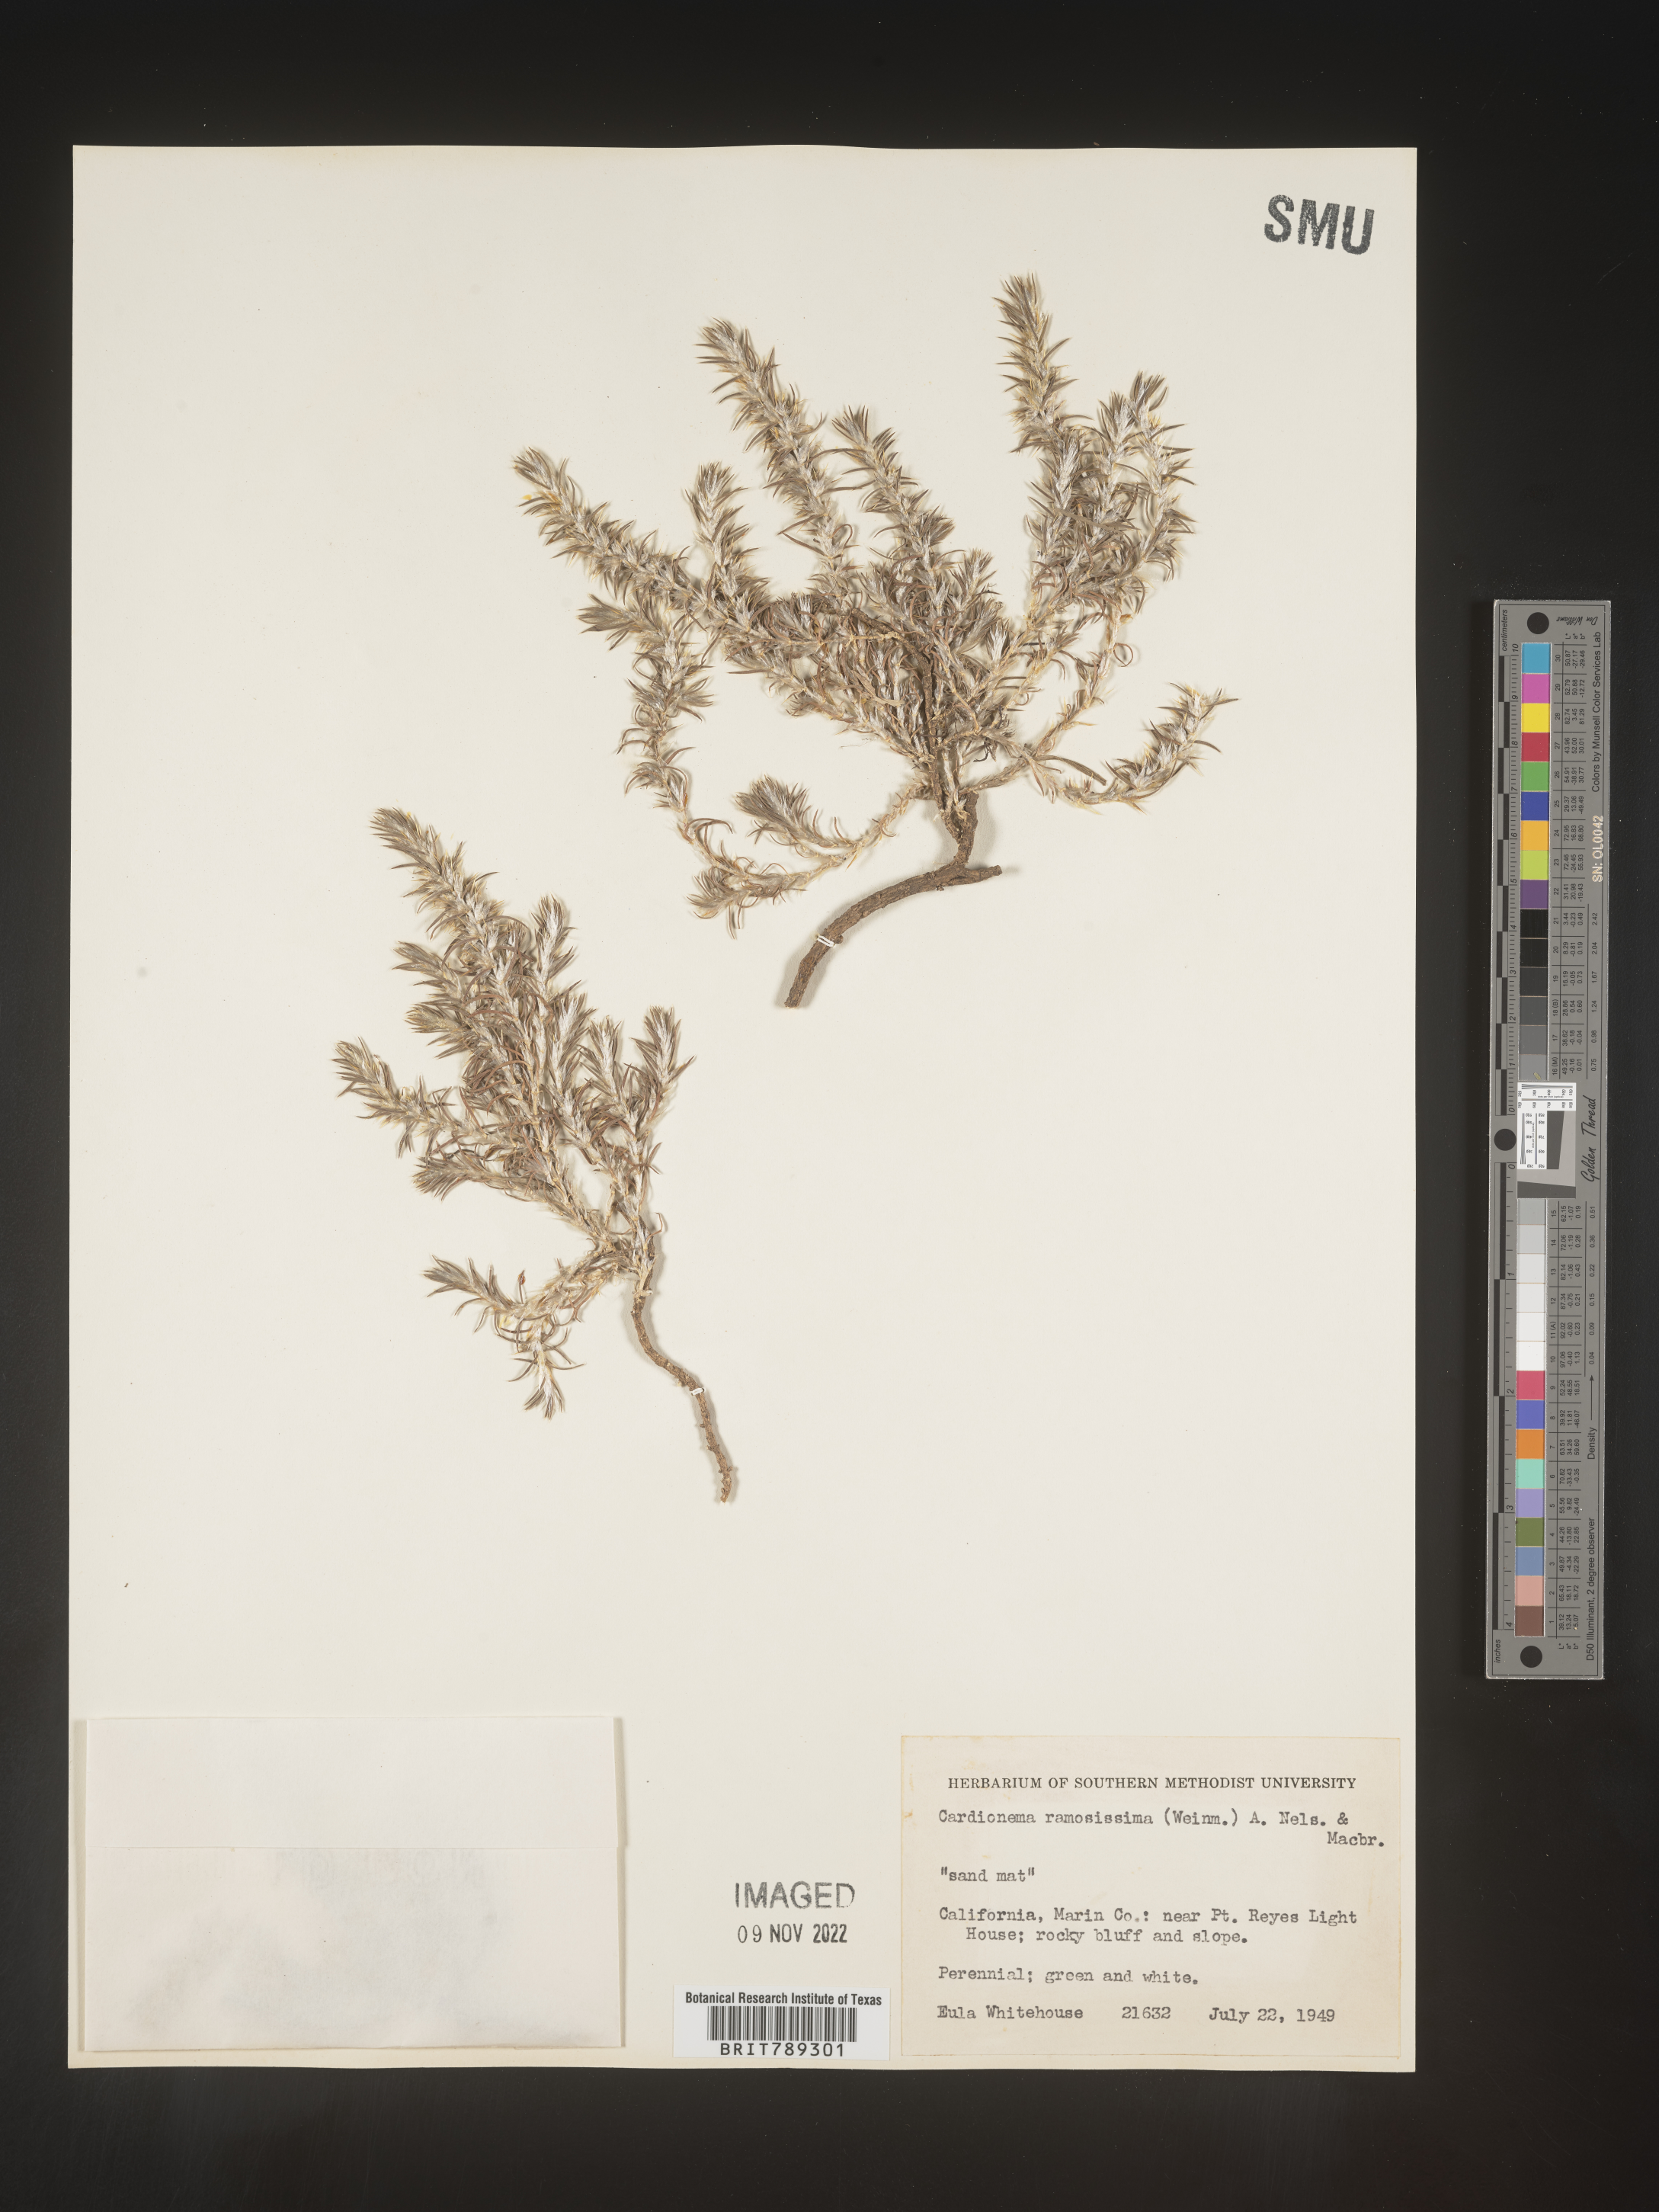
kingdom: Plantae
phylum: Tracheophyta
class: Magnoliopsida
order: Caryophyllales
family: Caryophyllaceae
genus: Cardionema
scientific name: Cardionema
